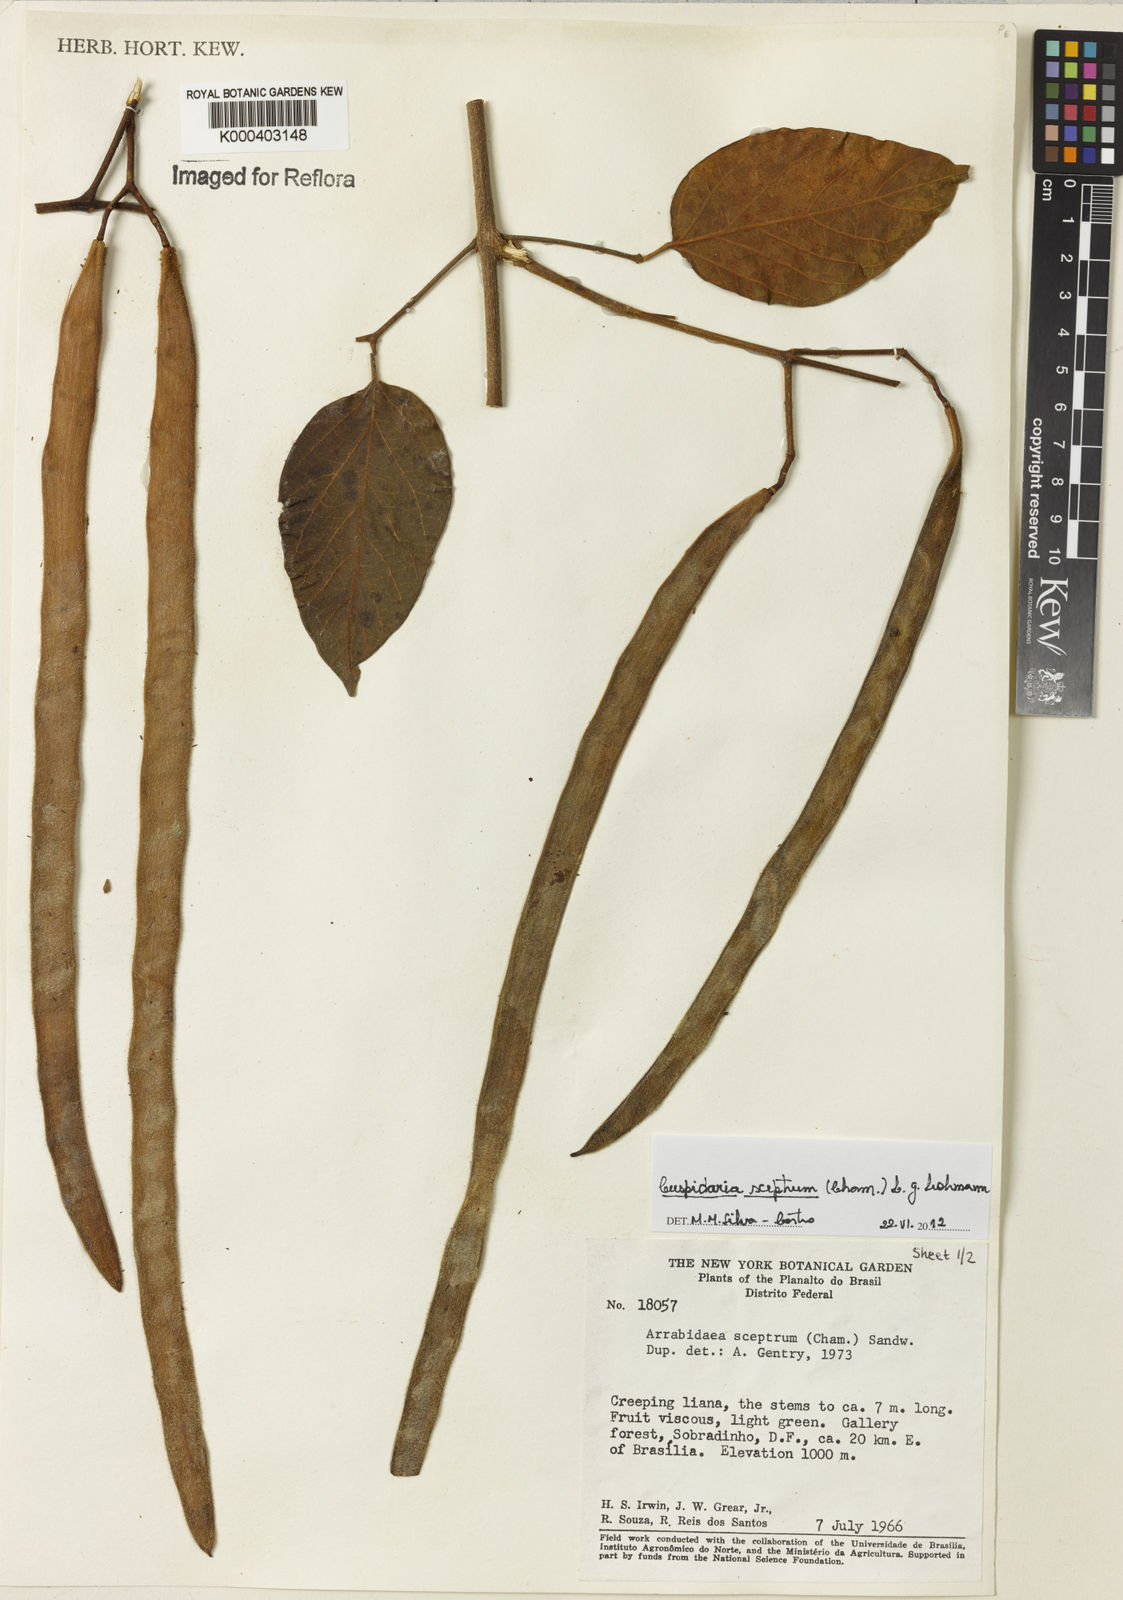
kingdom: Plantae
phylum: Tracheophyta
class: Magnoliopsida
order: Lamiales
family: Bignoniaceae
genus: Cuspidaria
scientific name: Cuspidaria sceptrum
